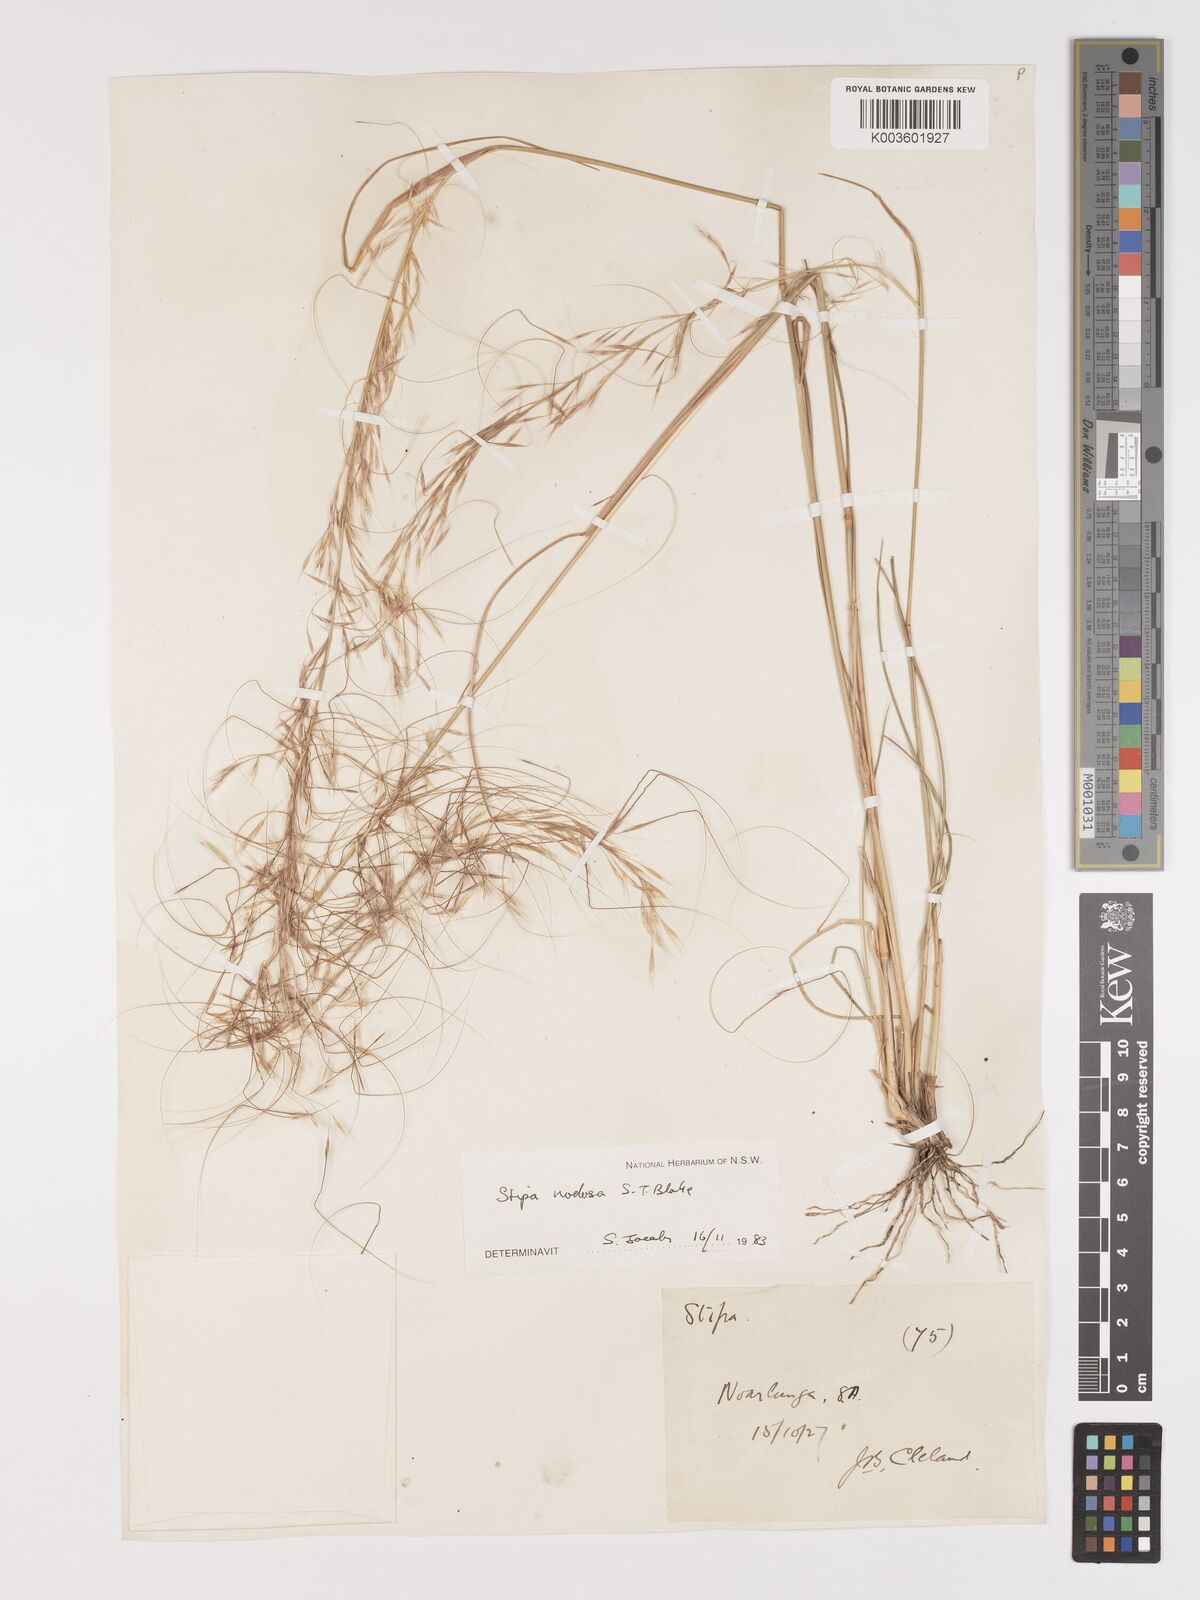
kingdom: Plantae
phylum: Tracheophyta
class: Liliopsida
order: Poales
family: Poaceae
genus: Austrostipa
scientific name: Austrostipa nodosa
